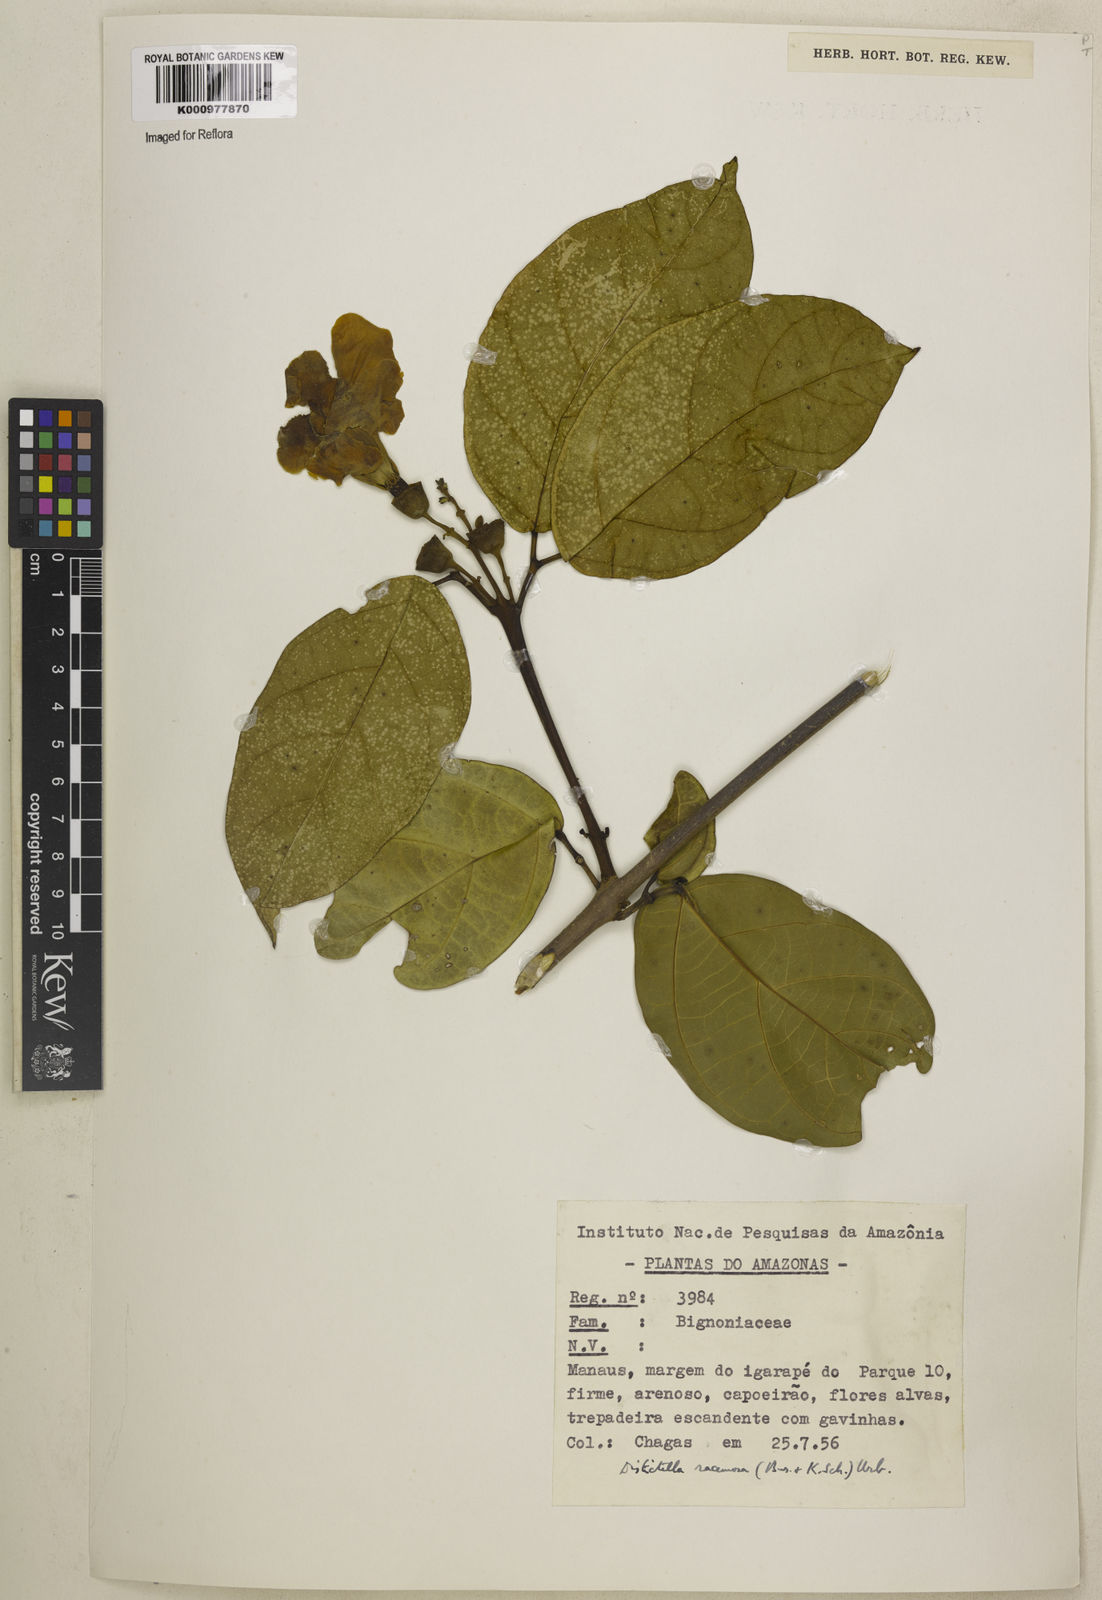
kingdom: Plantae
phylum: Tracheophyta
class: Magnoliopsida
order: Lamiales
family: Bignoniaceae
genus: Amphilophium
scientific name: Amphilophium racemosum
